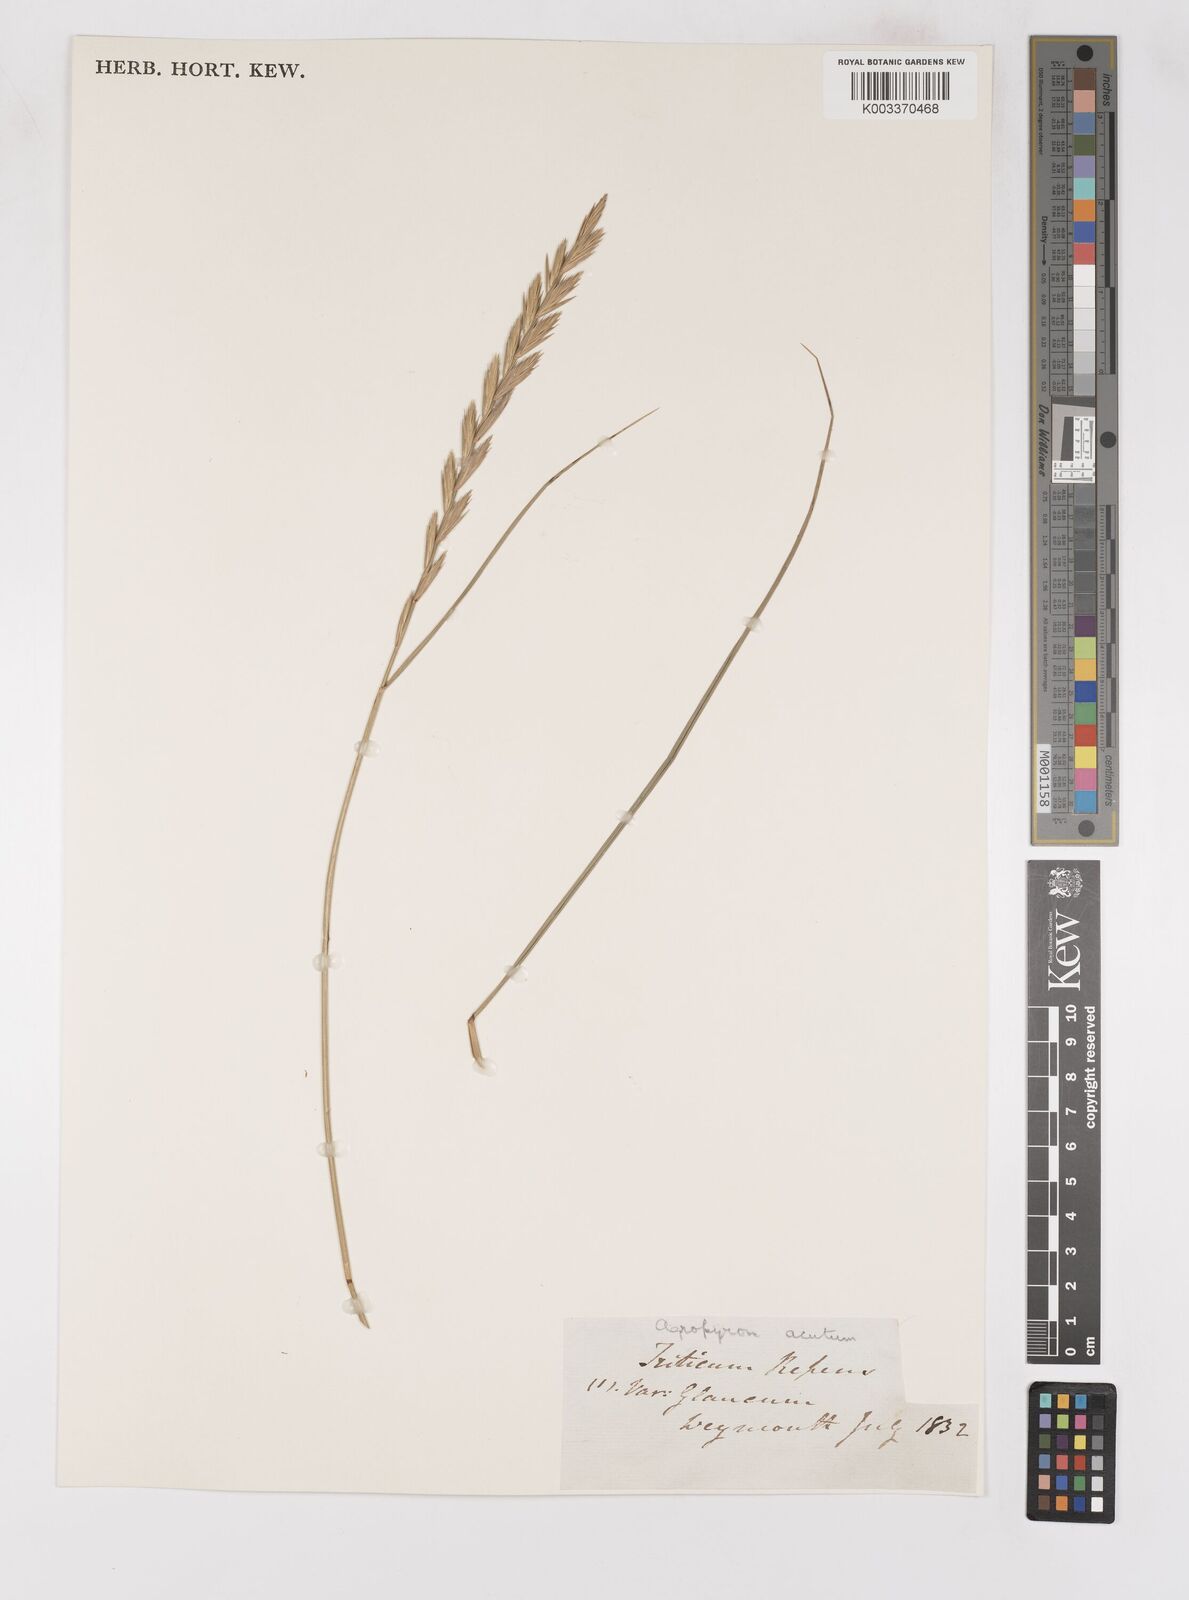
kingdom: Plantae
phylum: Tracheophyta
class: Liliopsida
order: Poales
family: Poaceae
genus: Thinoelymus
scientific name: Thinoelymus obtusiusculus
